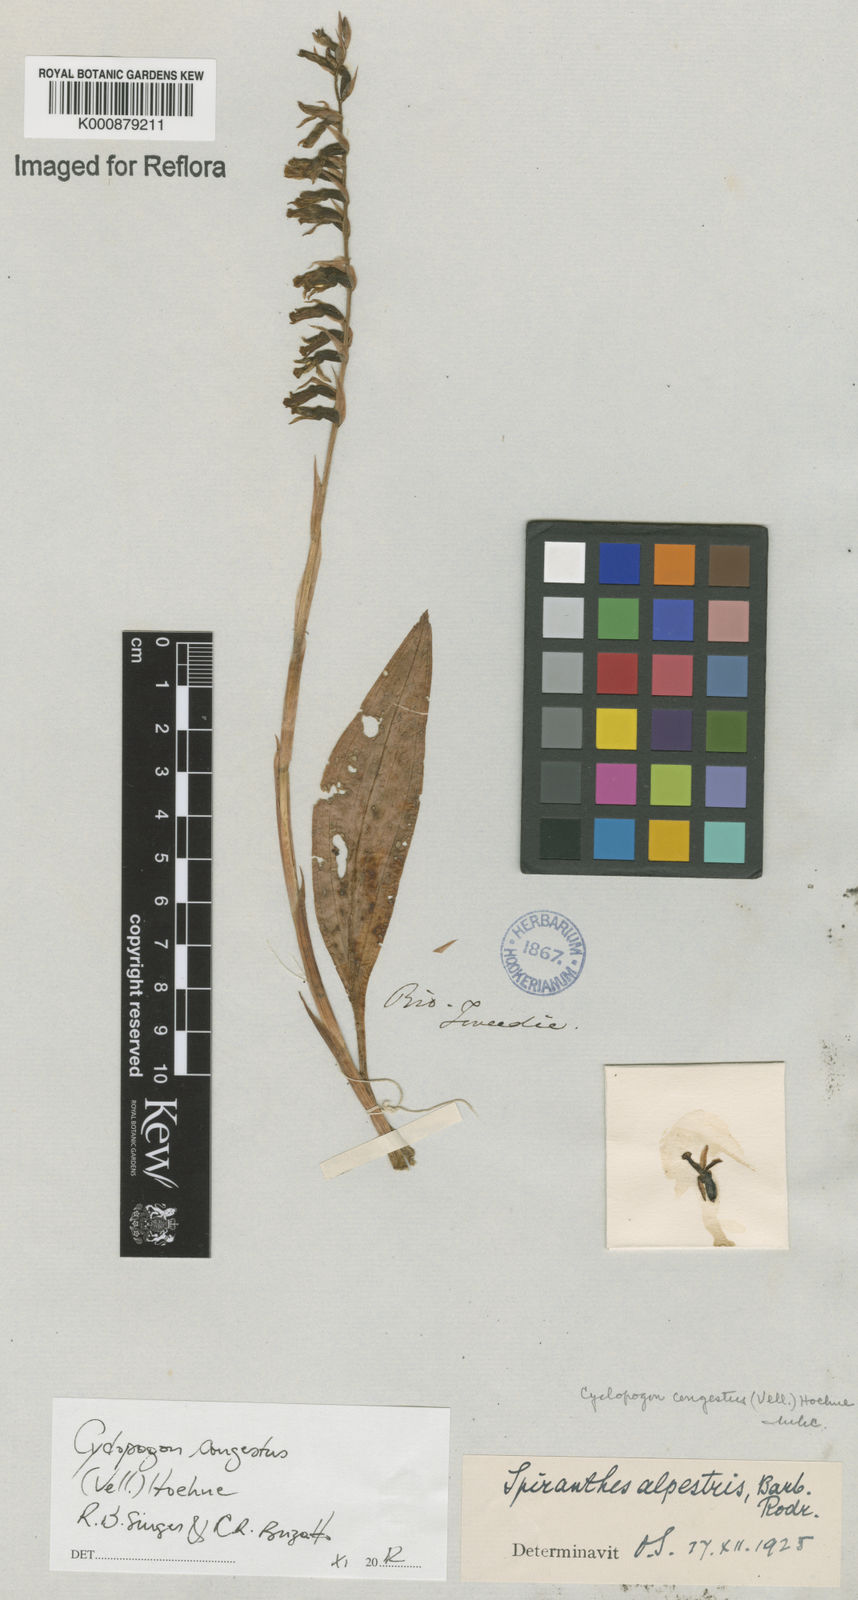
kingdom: Plantae
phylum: Tracheophyta
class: Liliopsida
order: Asparagales
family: Orchidaceae
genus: Cyclopogon
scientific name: Cyclopogon congestus
